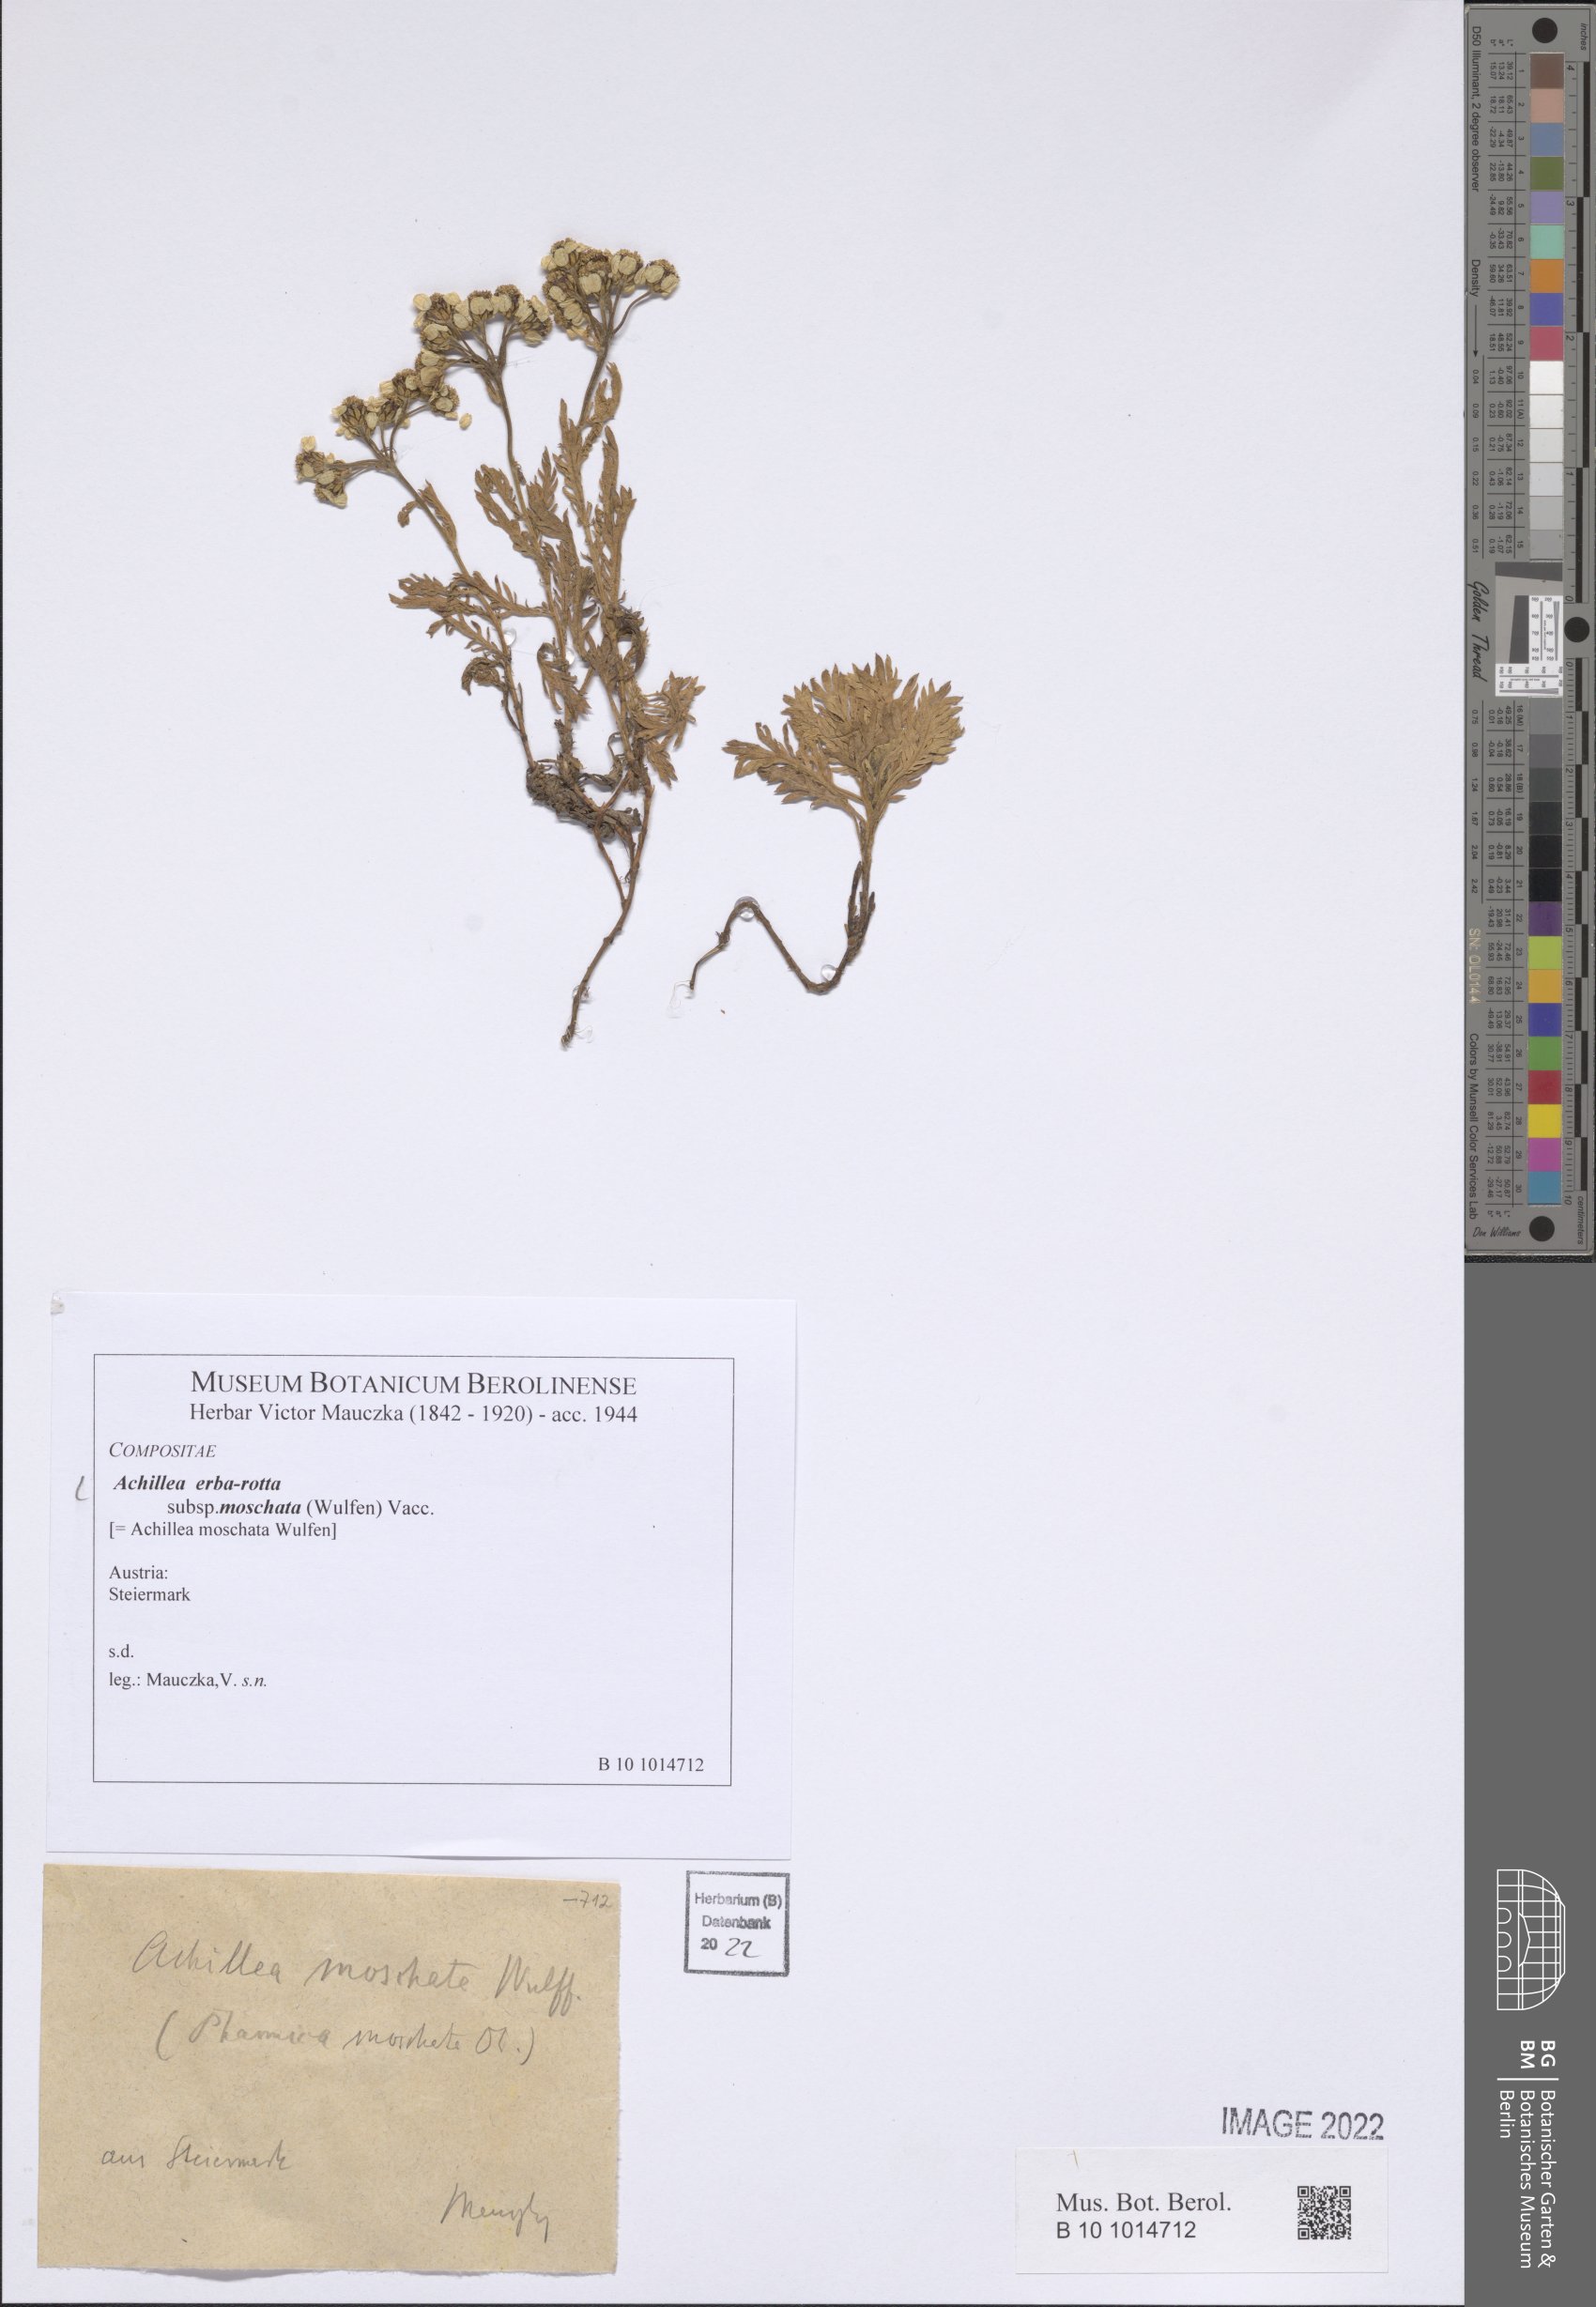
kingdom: Plantae
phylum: Tracheophyta
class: Magnoliopsida
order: Asterales
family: Asteraceae
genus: Achillea
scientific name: Achillea erba-rotta
